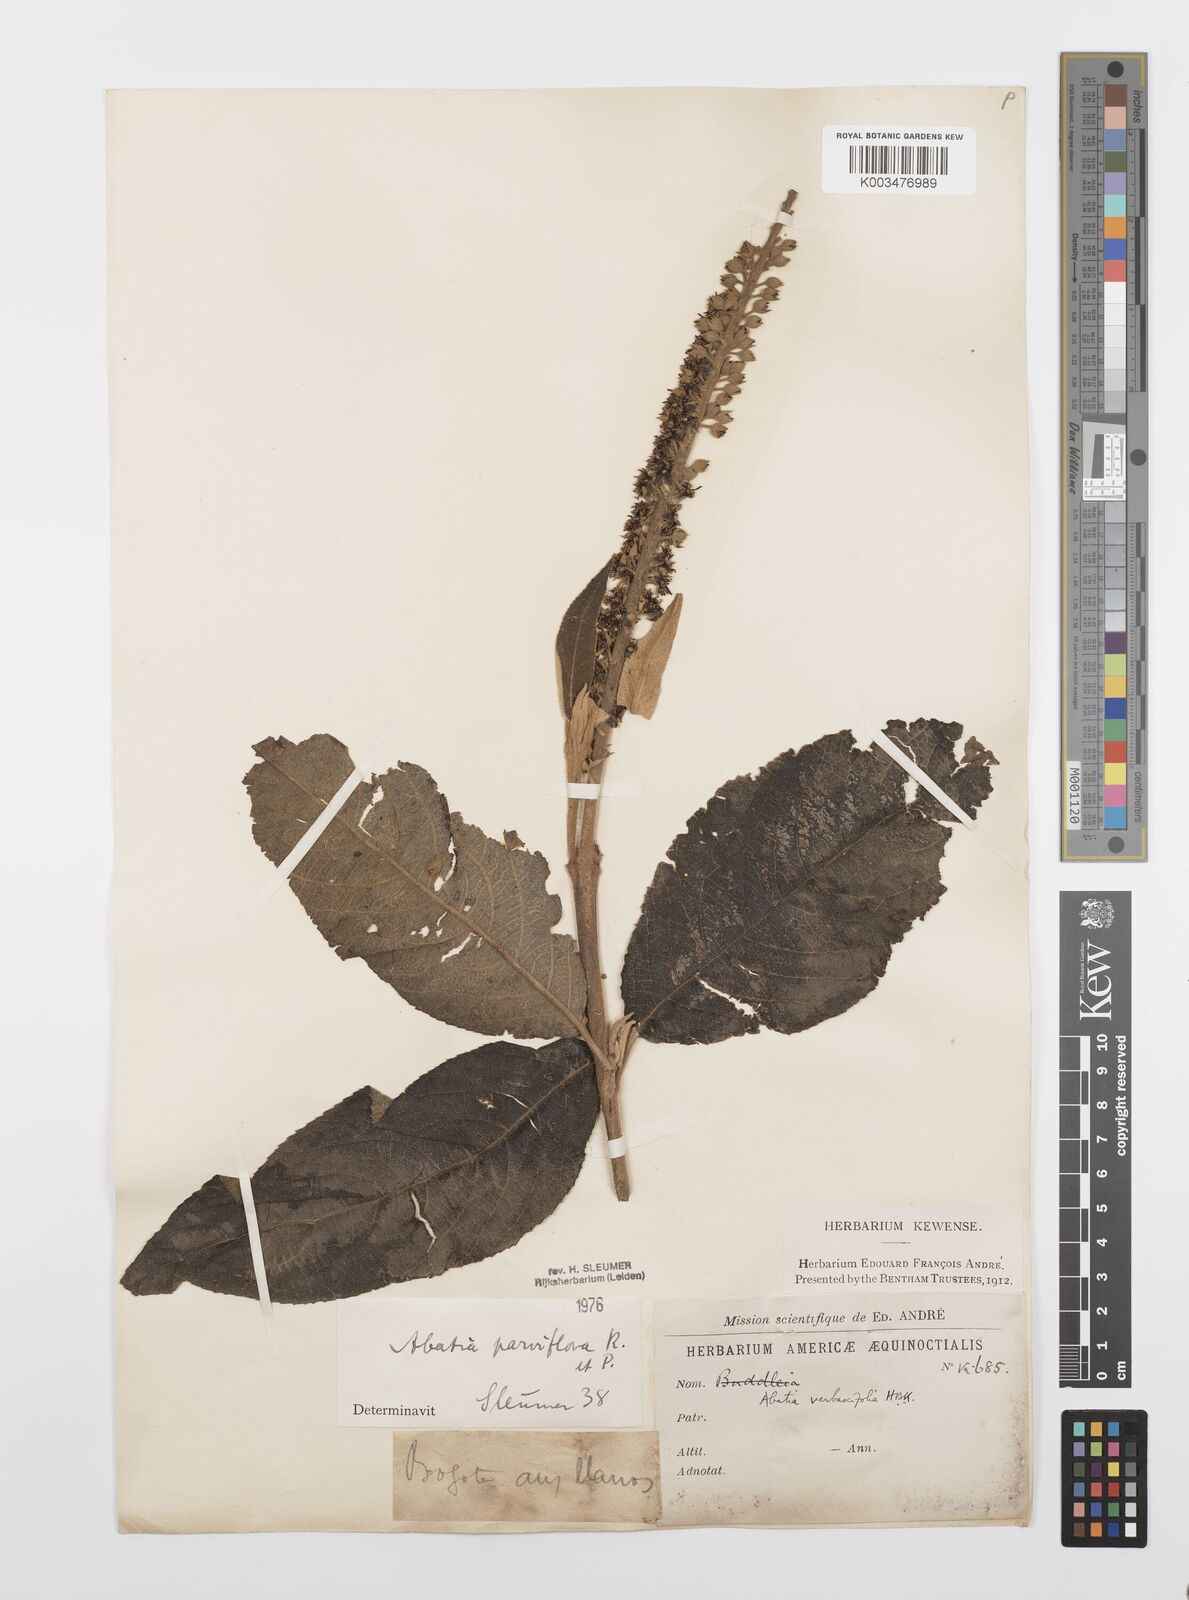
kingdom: Plantae
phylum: Tracheophyta
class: Magnoliopsida
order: Malpighiales
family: Salicaceae
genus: Abatia
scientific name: Abatia parviflora
